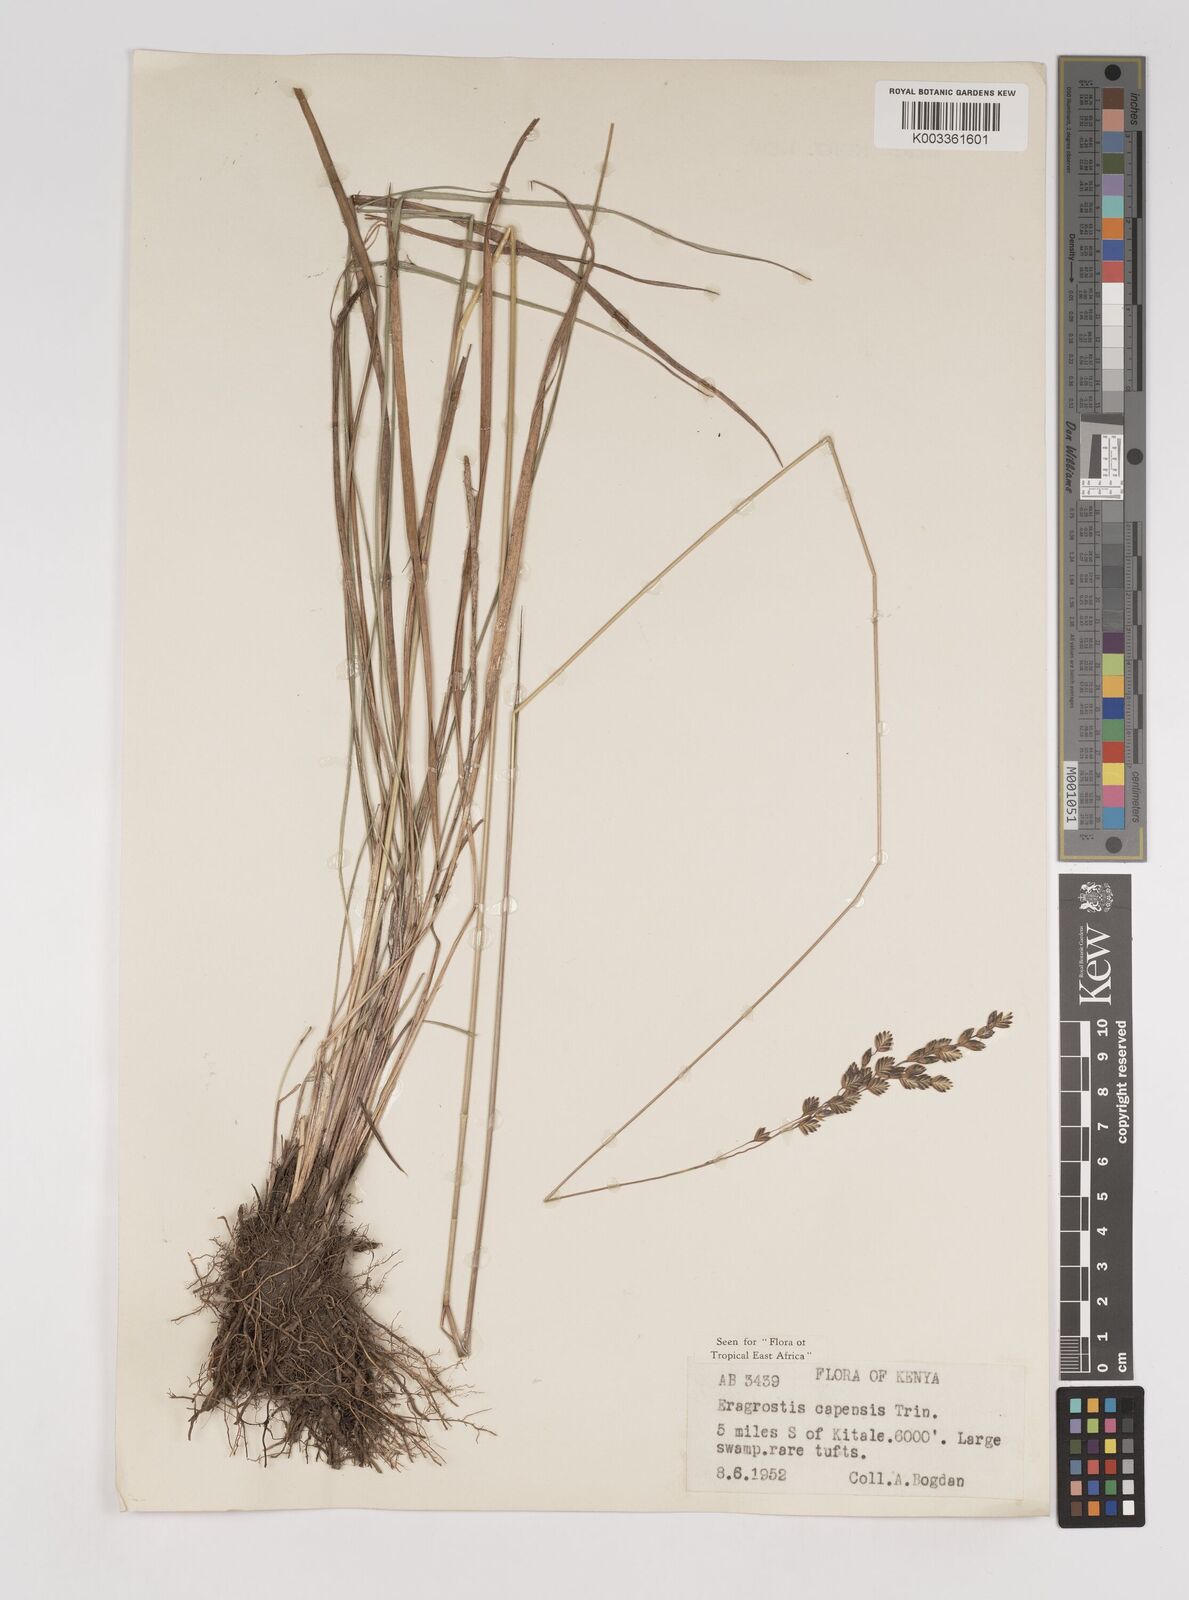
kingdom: Plantae
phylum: Tracheophyta
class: Liliopsida
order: Poales
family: Poaceae
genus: Eragrostis
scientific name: Eragrostis capensis
